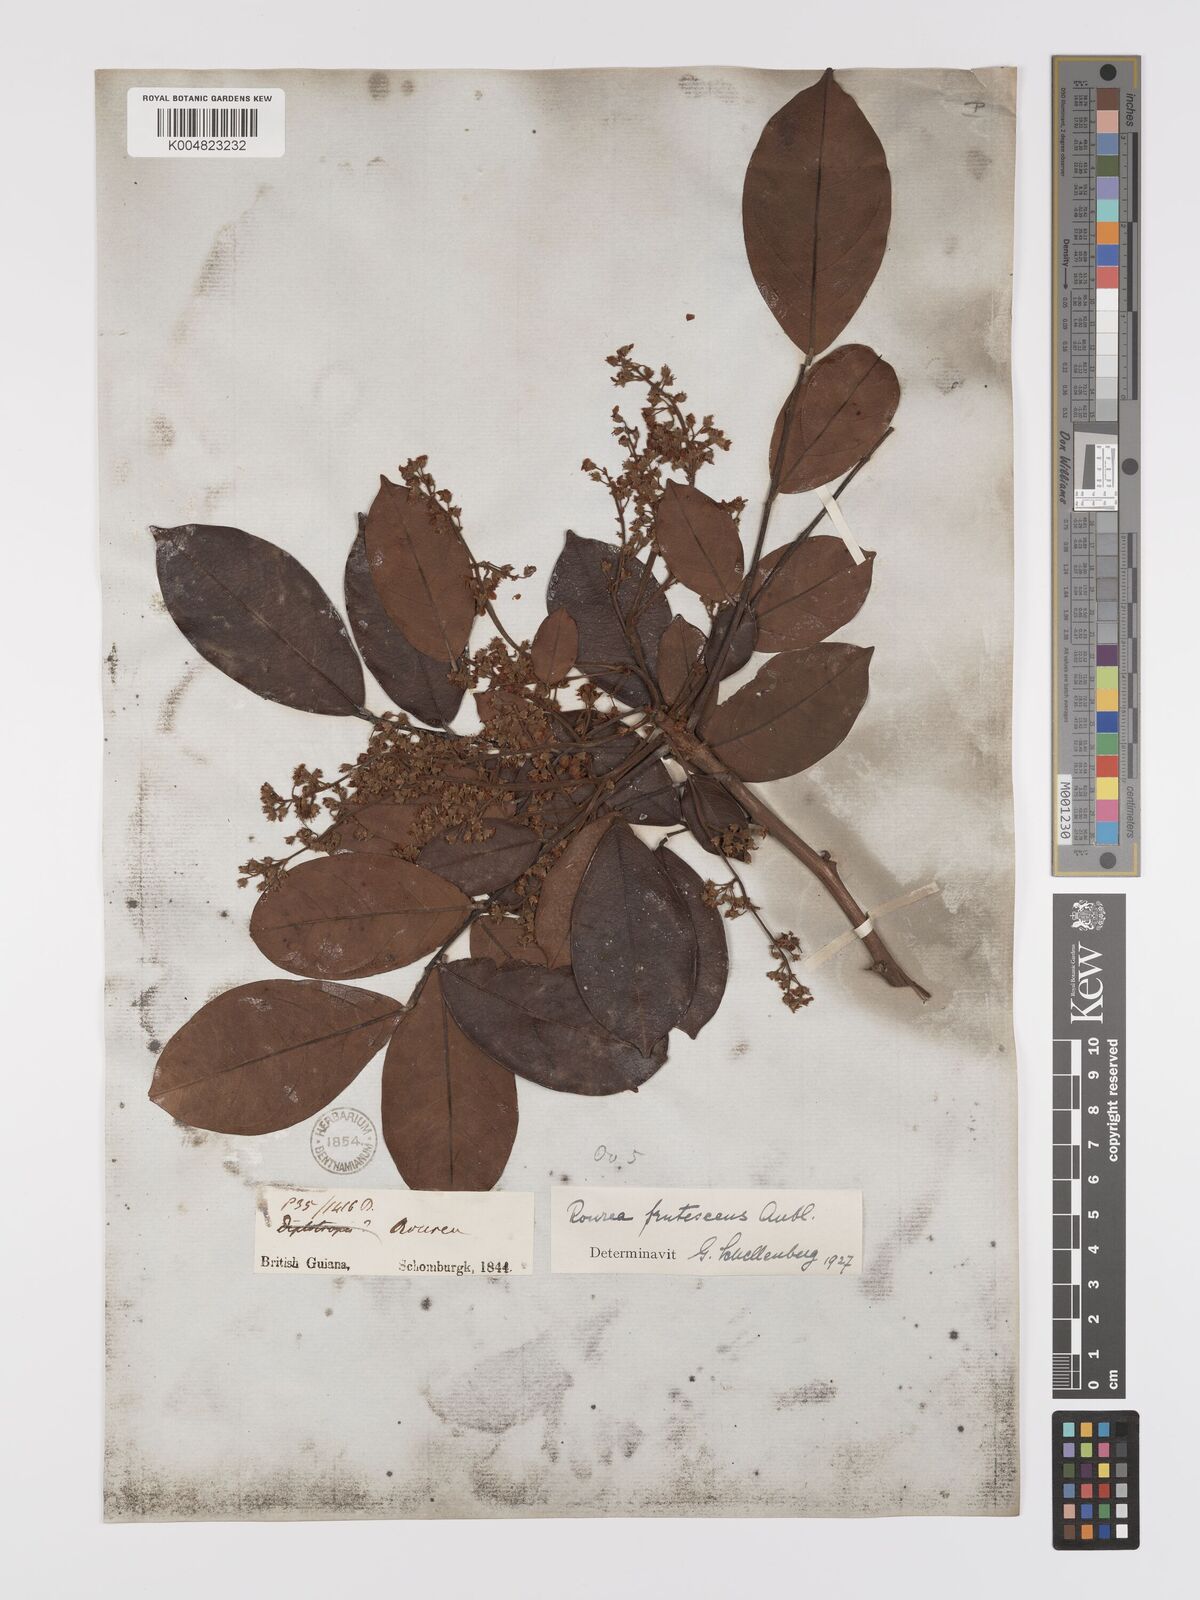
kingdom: Plantae
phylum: Tracheophyta
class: Magnoliopsida
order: Oxalidales
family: Connaraceae
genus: Rourea
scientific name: Rourea frutescens
